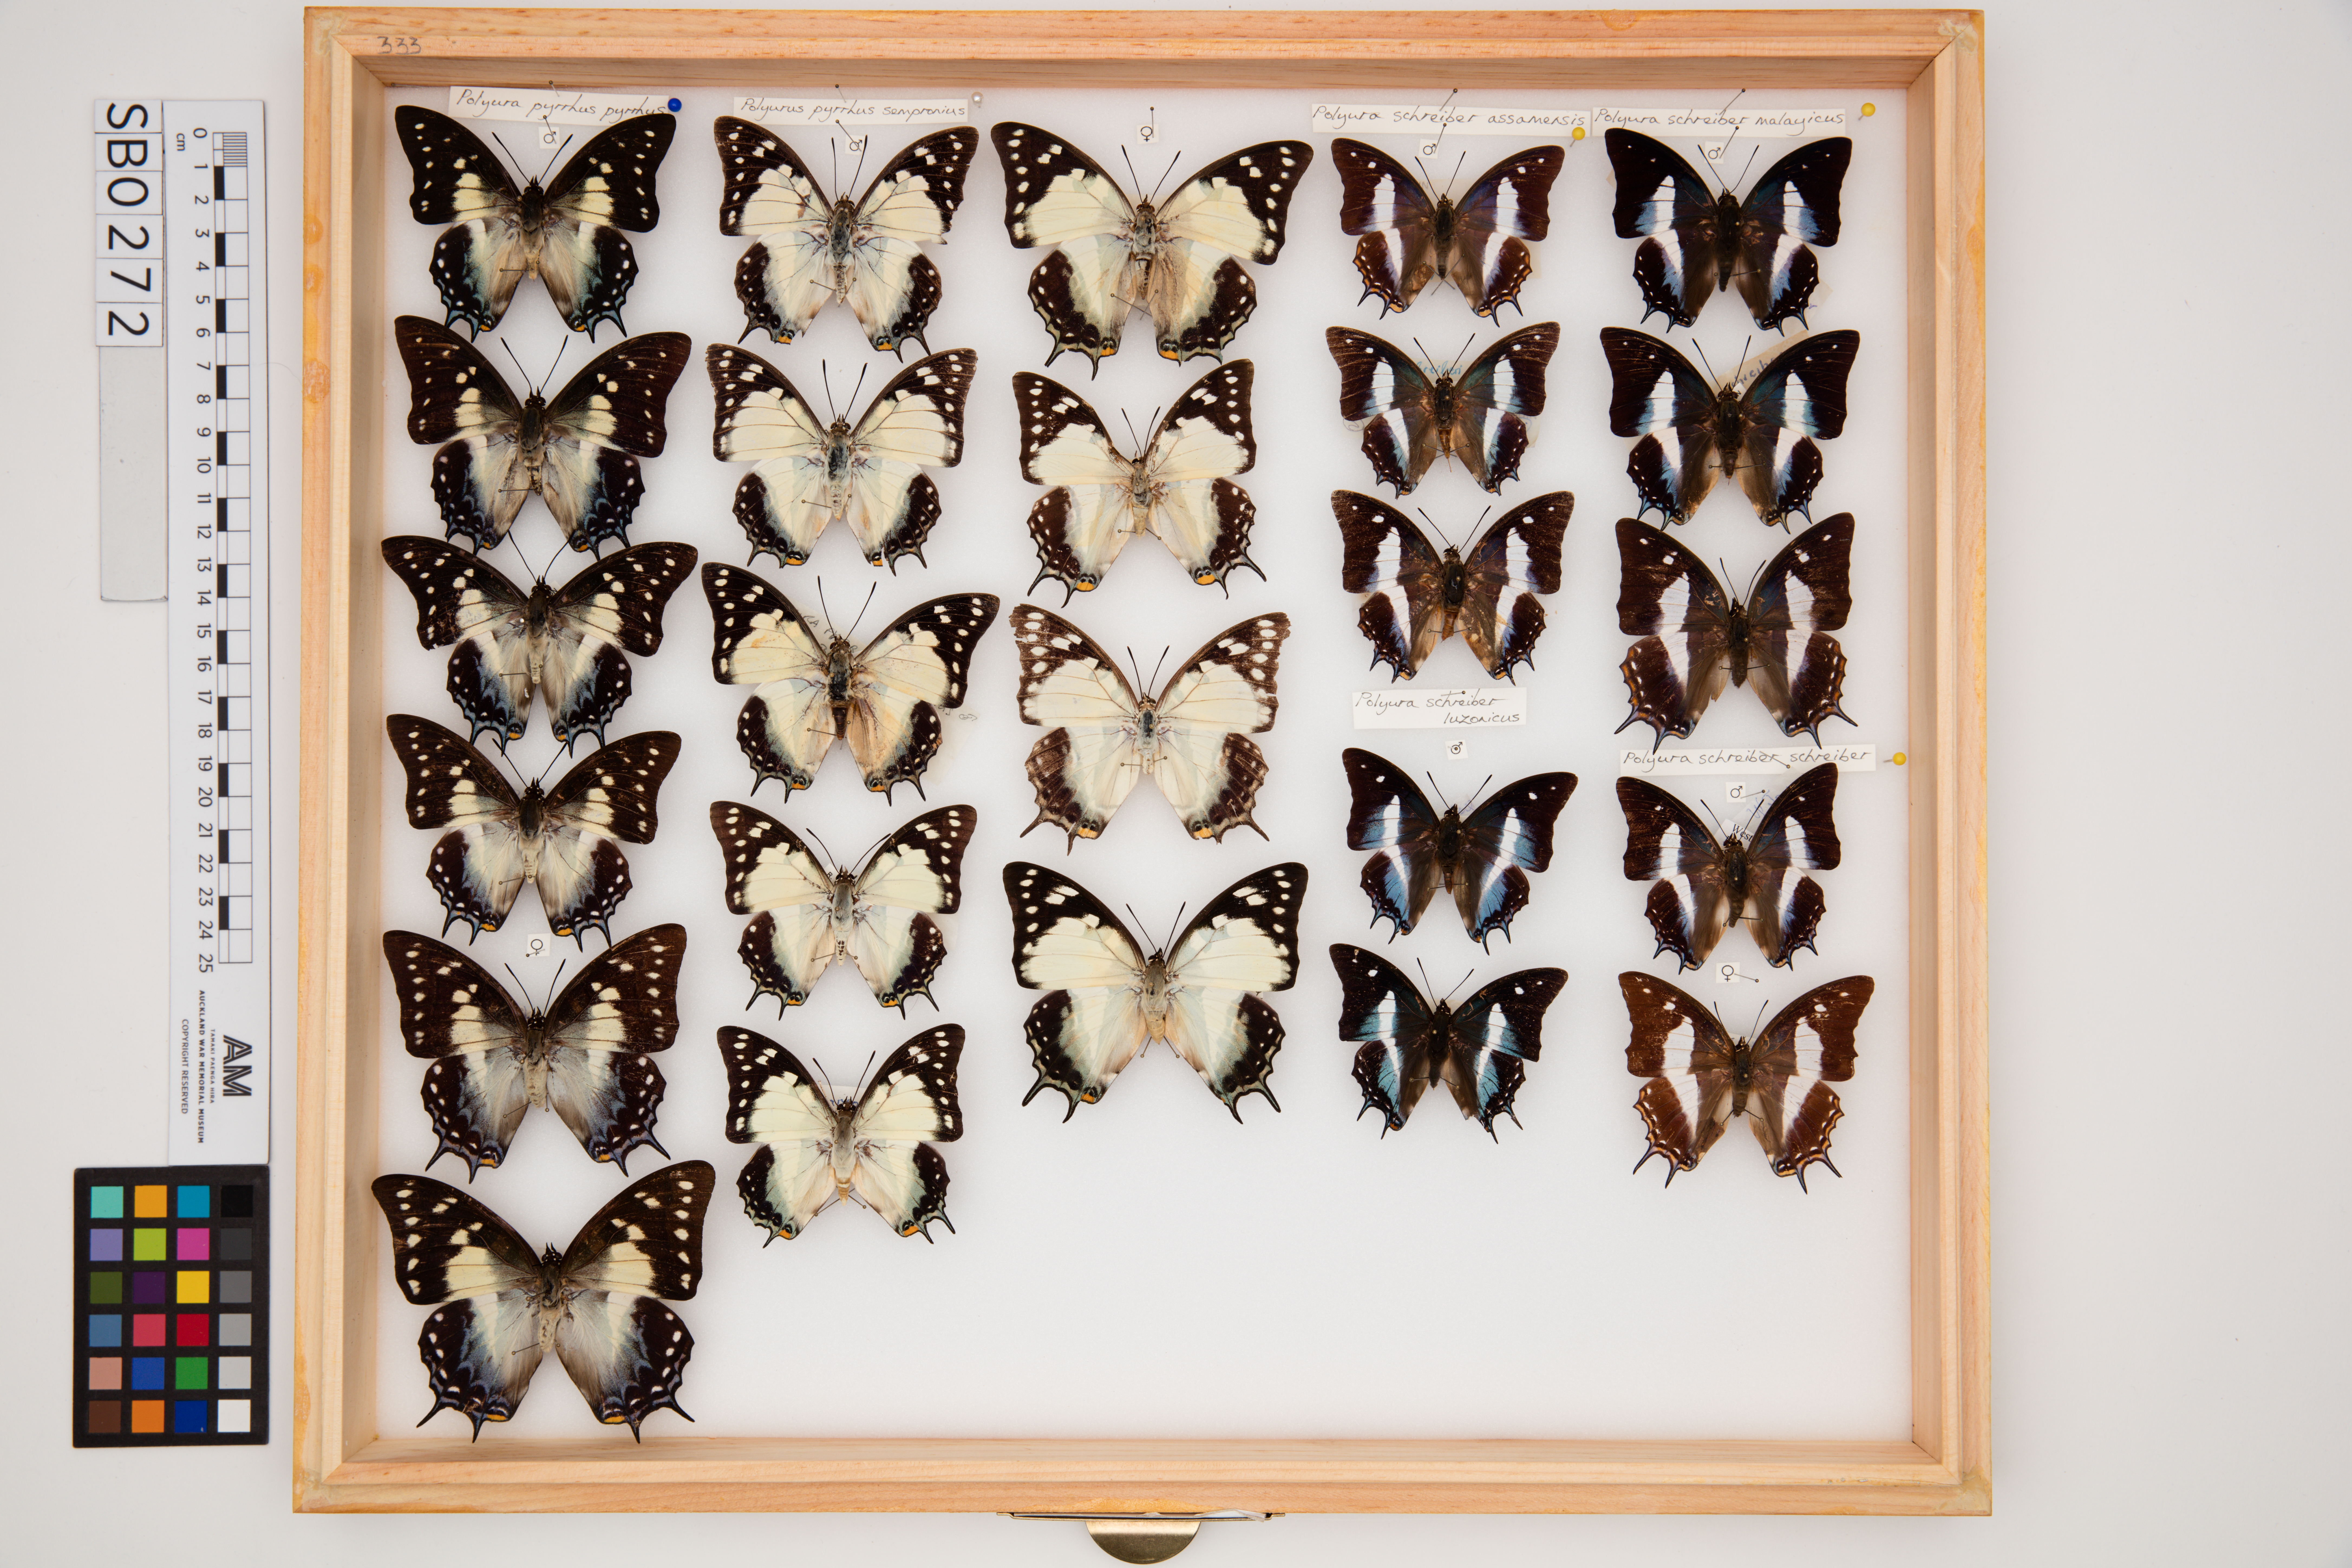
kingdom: Animalia
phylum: Arthropoda
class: Insecta
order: Lepidoptera
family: Nymphalidae
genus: Polyura
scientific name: Polyura pyrrhus
